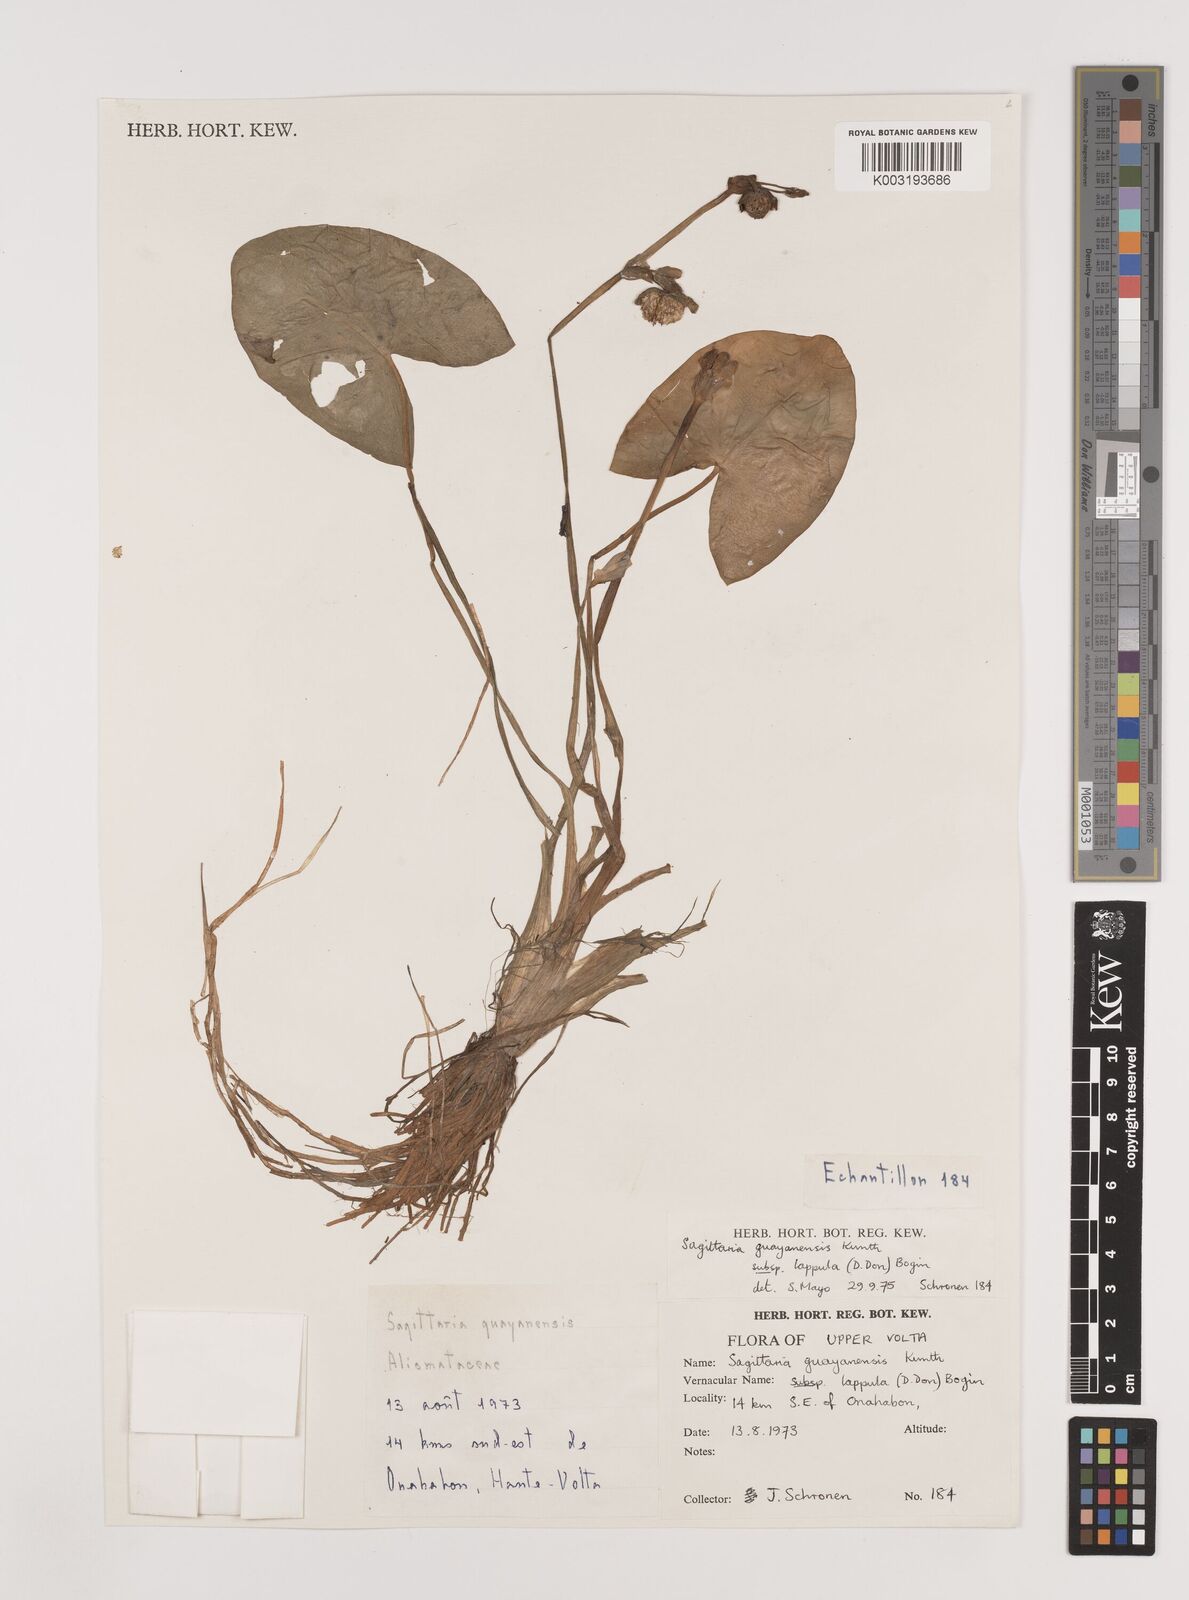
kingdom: Plantae
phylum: Tracheophyta
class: Liliopsida
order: Alismatales
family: Alismataceae
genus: Sagittaria
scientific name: Sagittaria guayanensis
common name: Guyanese arrowhead
